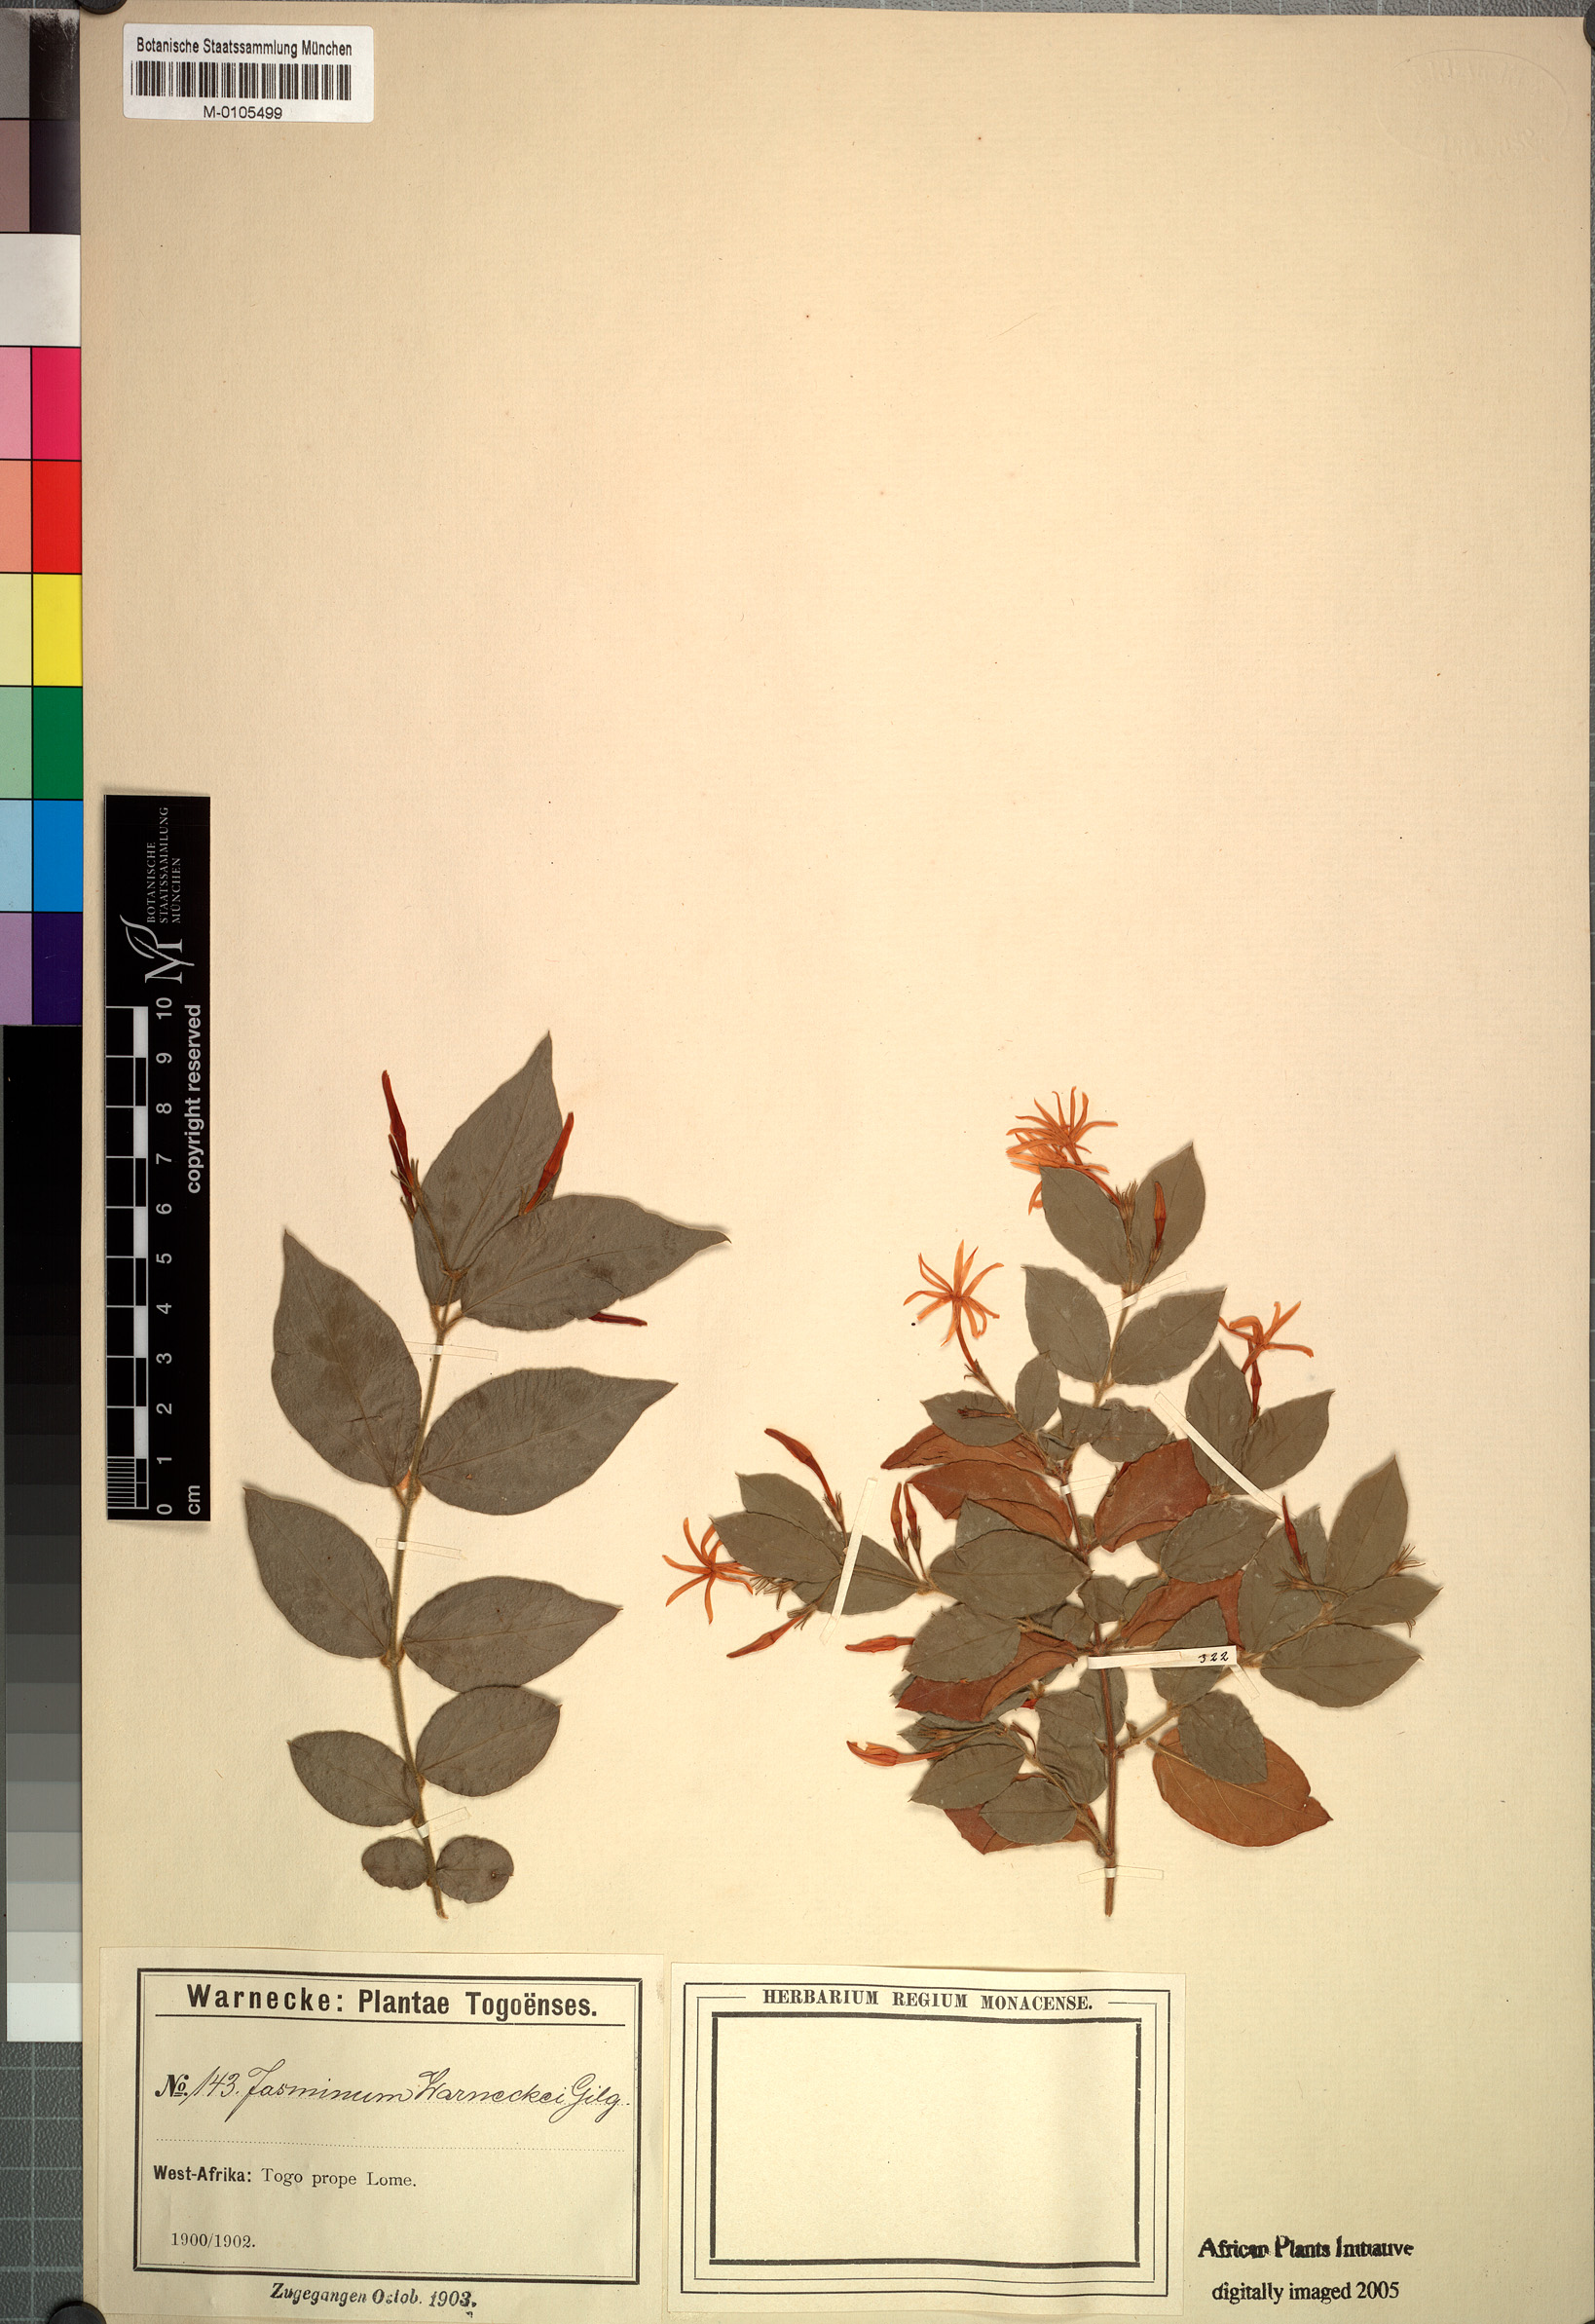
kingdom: Plantae
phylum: Tracheophyta
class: Magnoliopsida
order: Lamiales
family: Oleaceae
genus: Jasminum
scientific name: Jasminum pauciflorum
